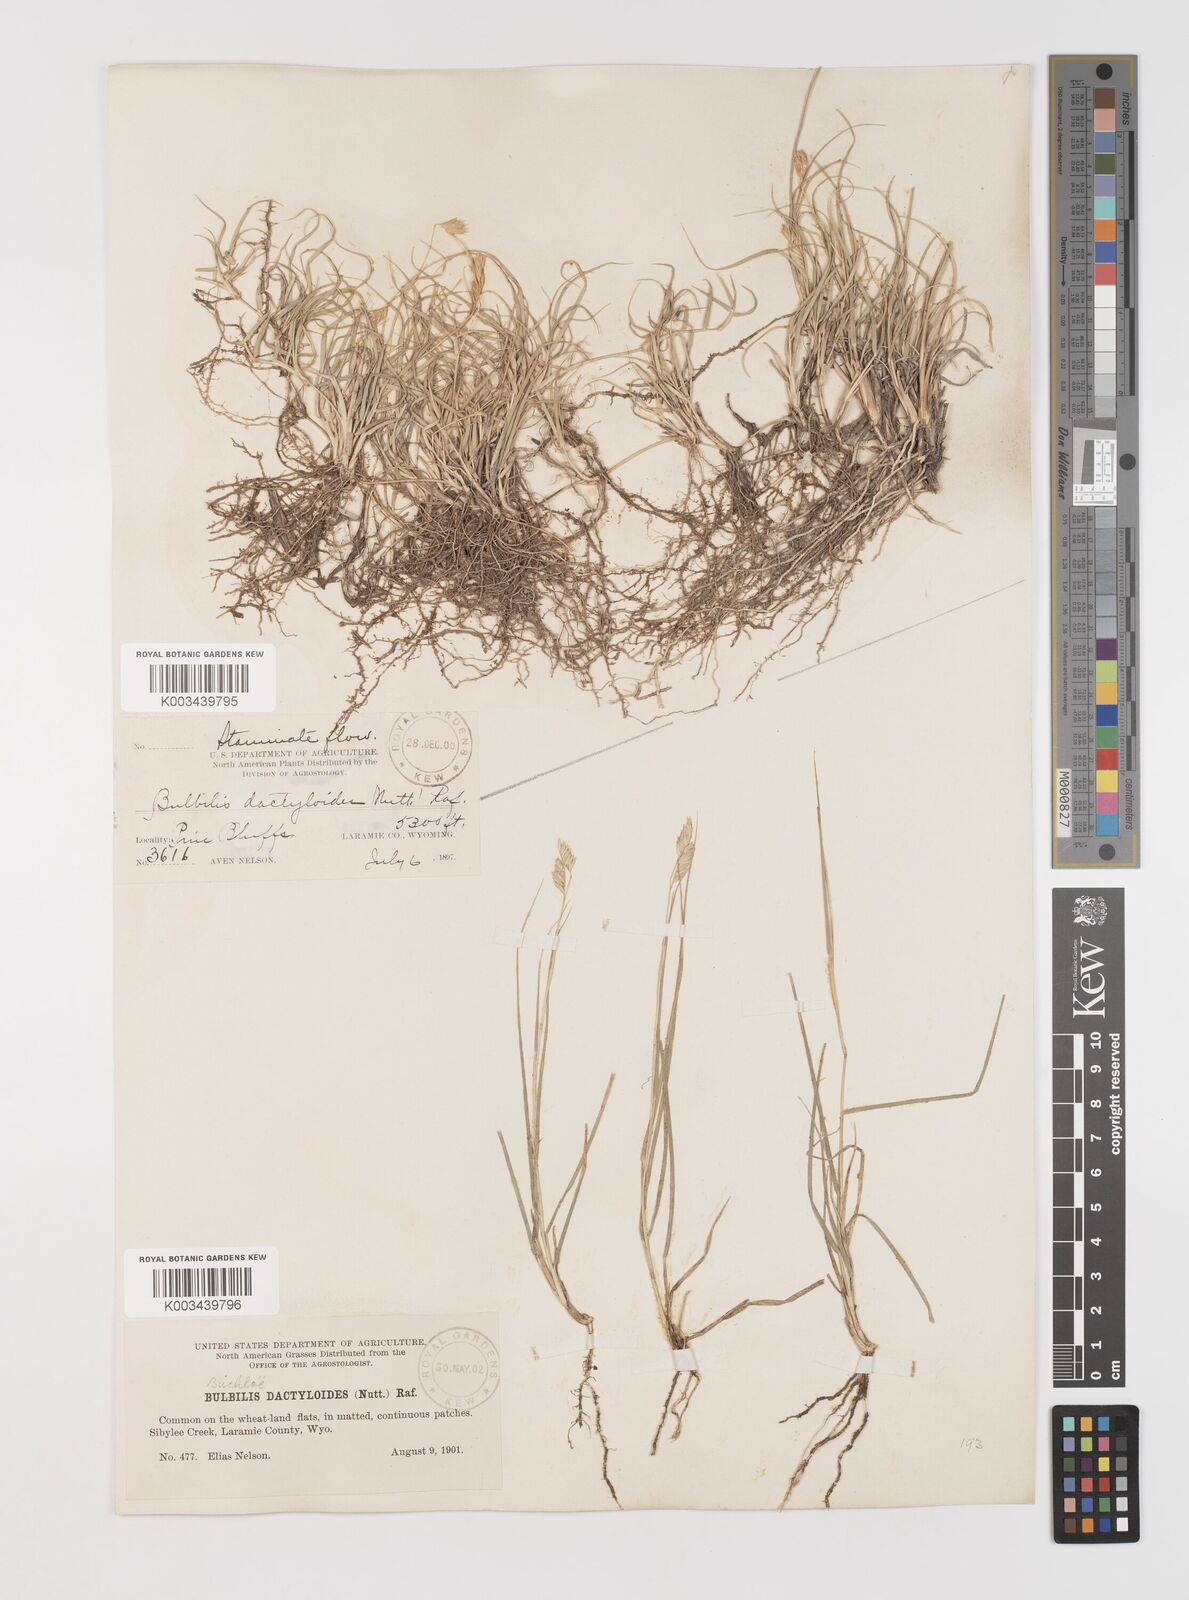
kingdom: Plantae
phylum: Tracheophyta
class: Liliopsida
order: Poales
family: Poaceae
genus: Bouteloua
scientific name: Bouteloua dactyloides
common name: Buffalo grass
